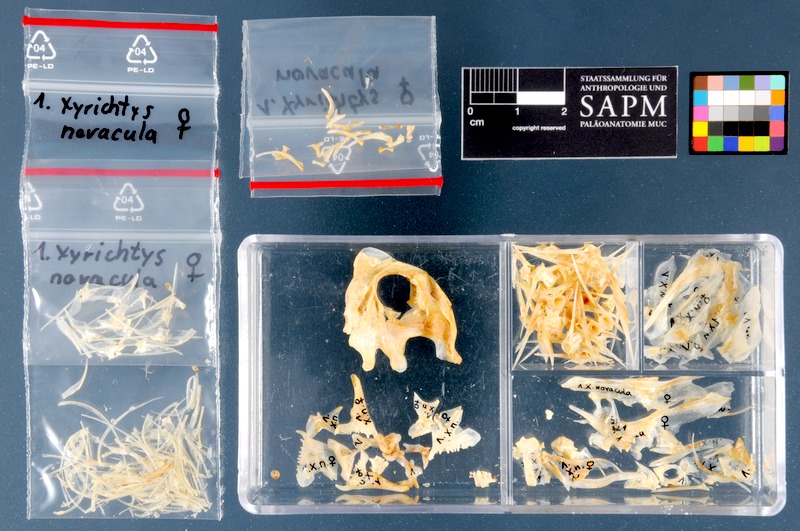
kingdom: Animalia
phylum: Chordata
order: Perciformes
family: Labridae
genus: Xyrichtys
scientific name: Xyrichtys novacula
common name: Pearly razorfish
